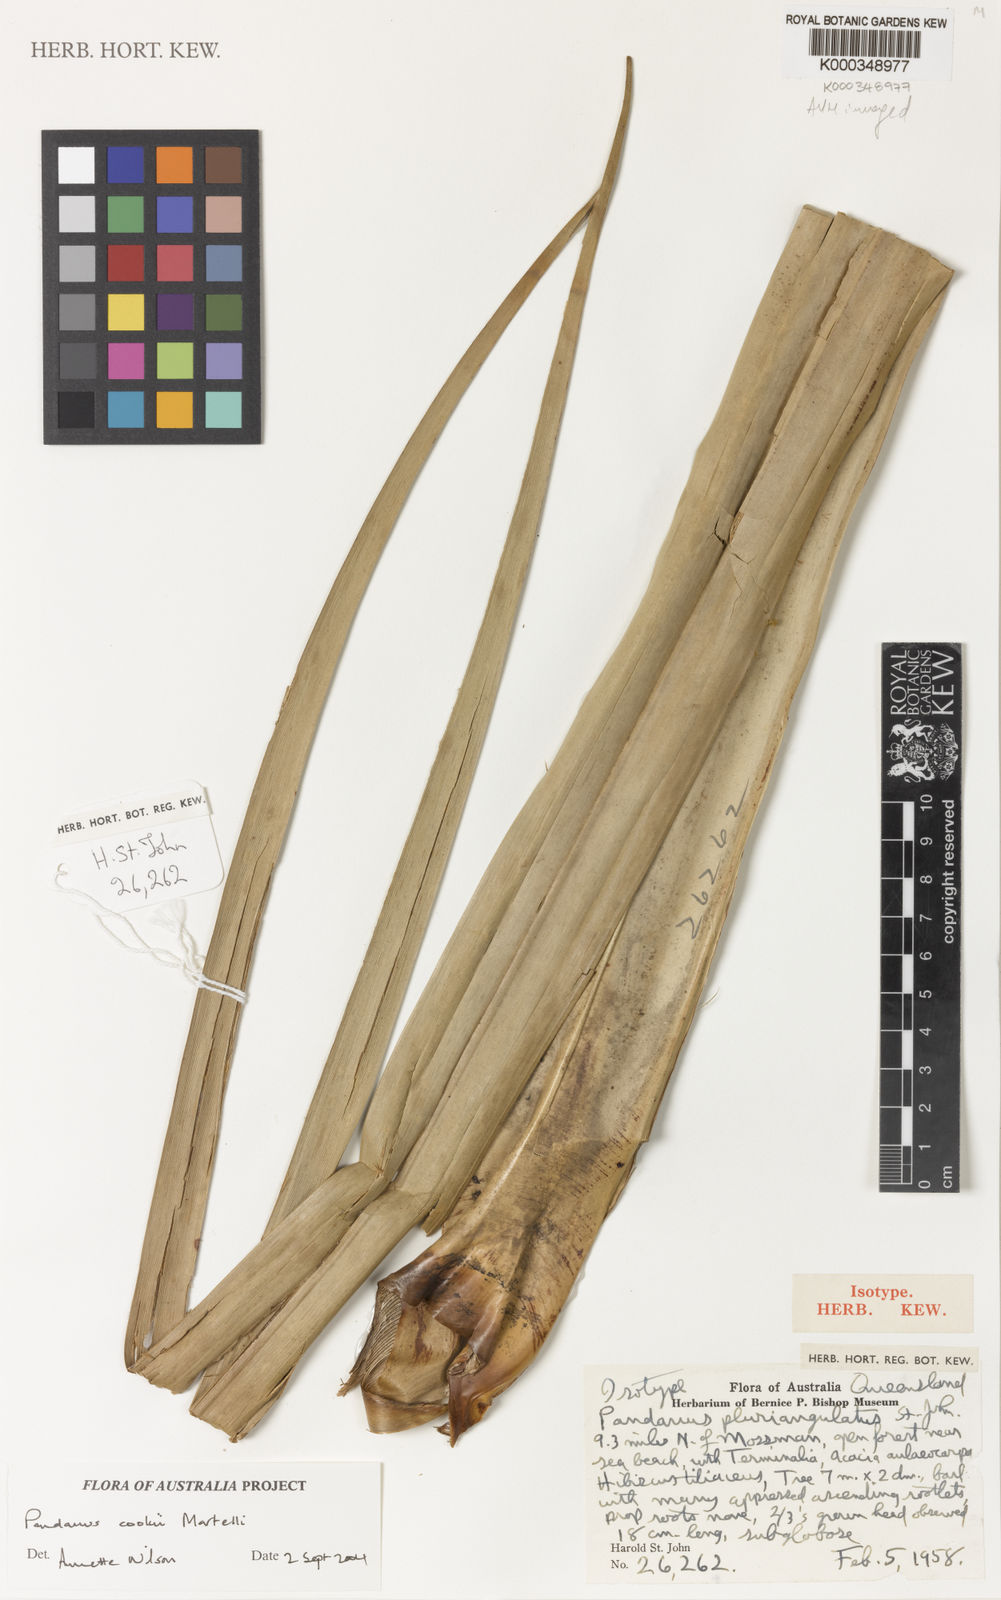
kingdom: Plantae
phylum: Tracheophyta
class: Liliopsida
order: Pandanales
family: Pandanaceae
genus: Pandanus
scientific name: Pandanus cookii
